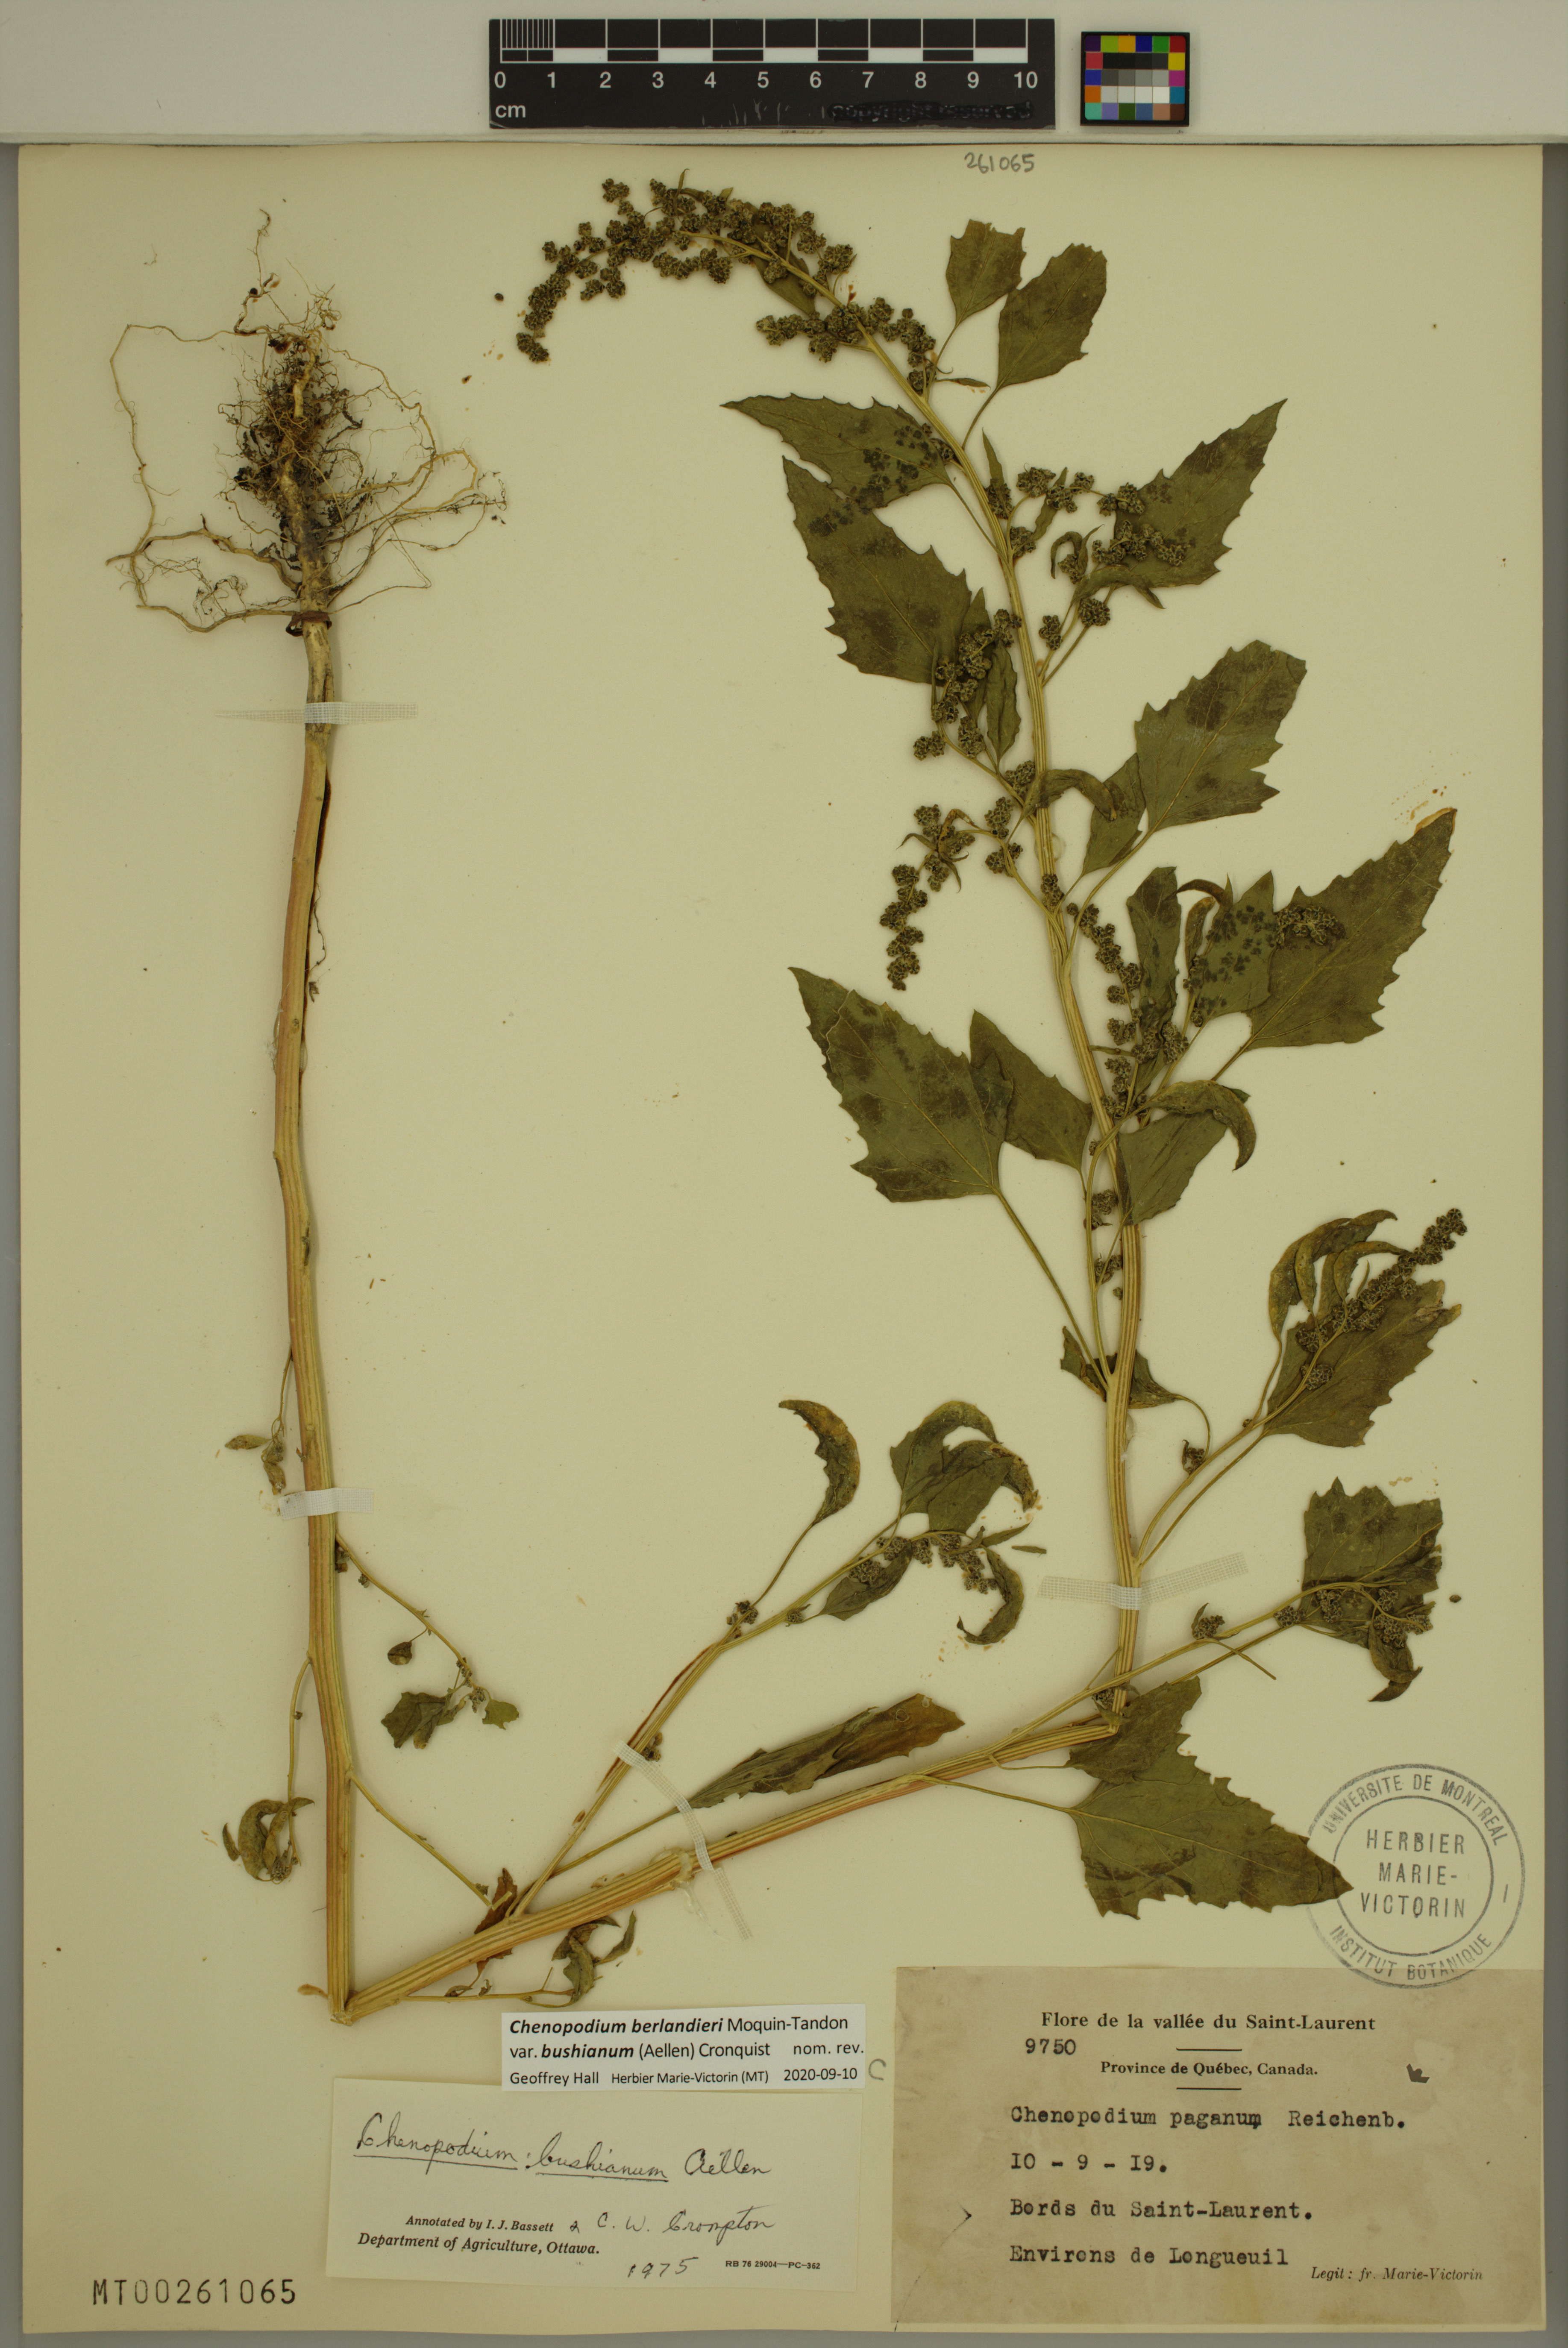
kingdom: Plantae
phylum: Tracheophyta
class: Magnoliopsida
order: Caryophyllales
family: Amaranthaceae
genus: Chenopodium
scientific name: Chenopodium berlandieri
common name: Pit-seed goosefoot
